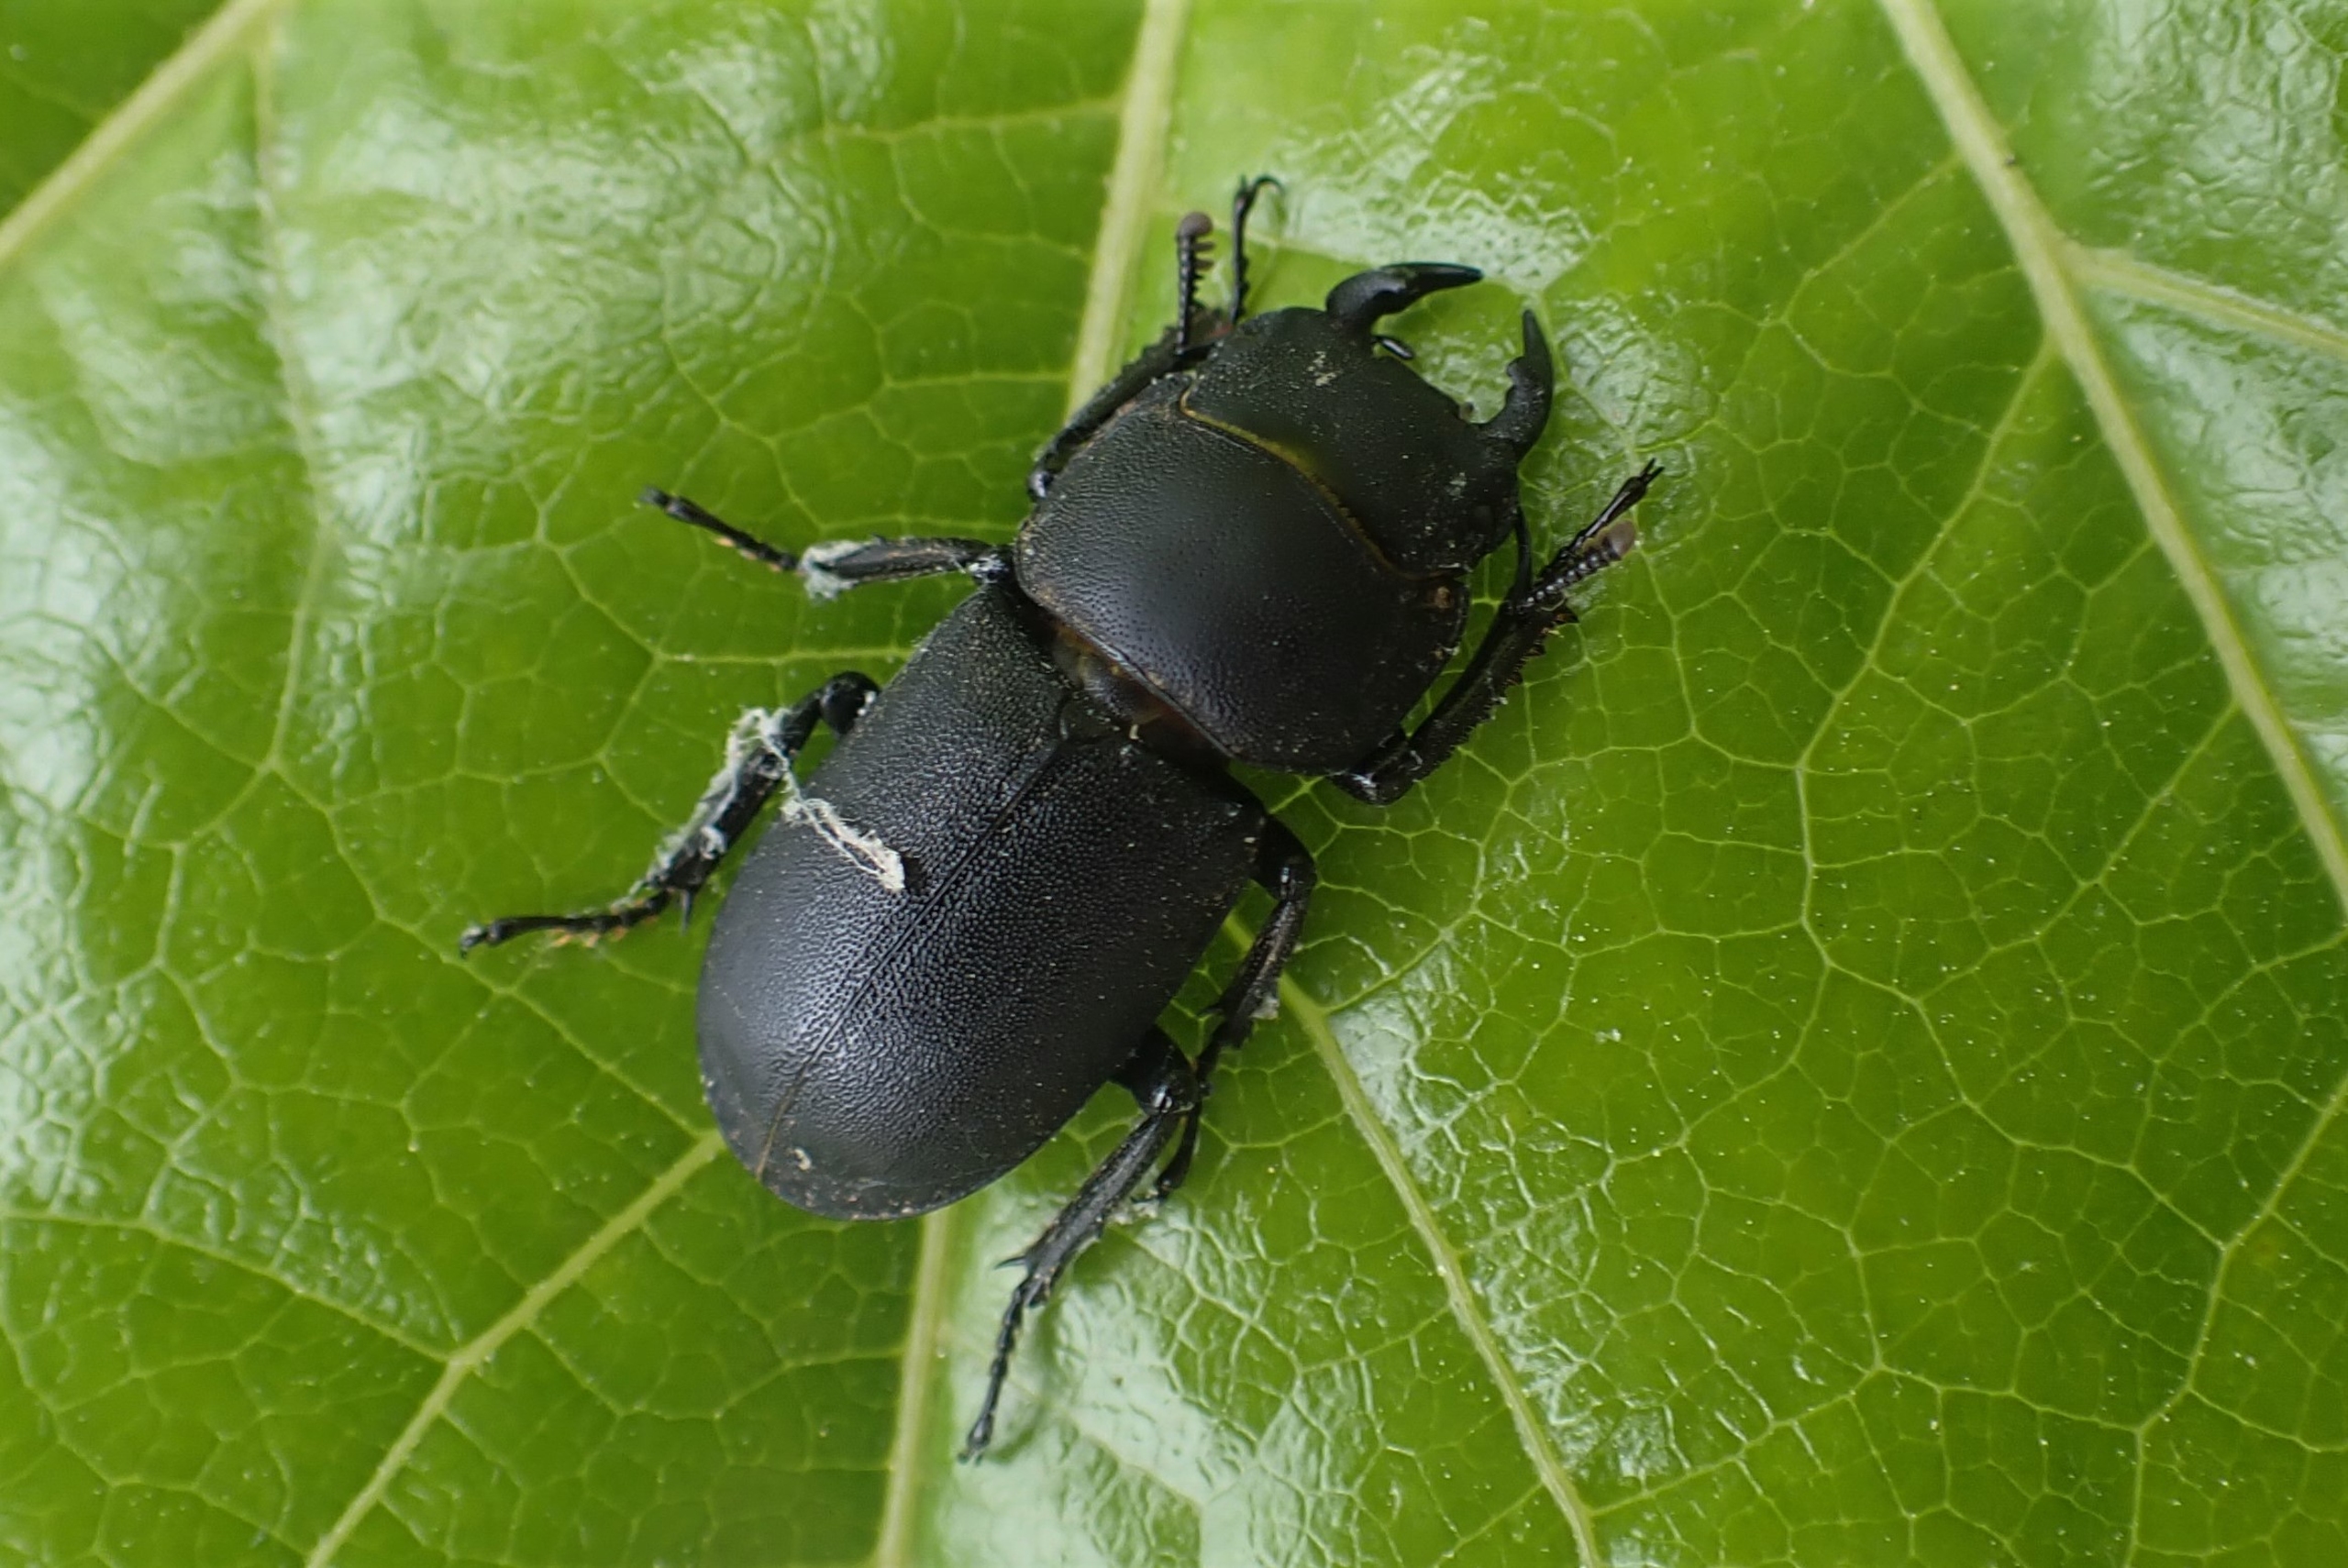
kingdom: Animalia
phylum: Arthropoda
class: Insecta
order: Coleoptera
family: Lucanidae
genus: Dorcus
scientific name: Dorcus parallelipipedus
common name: Bøghjort
